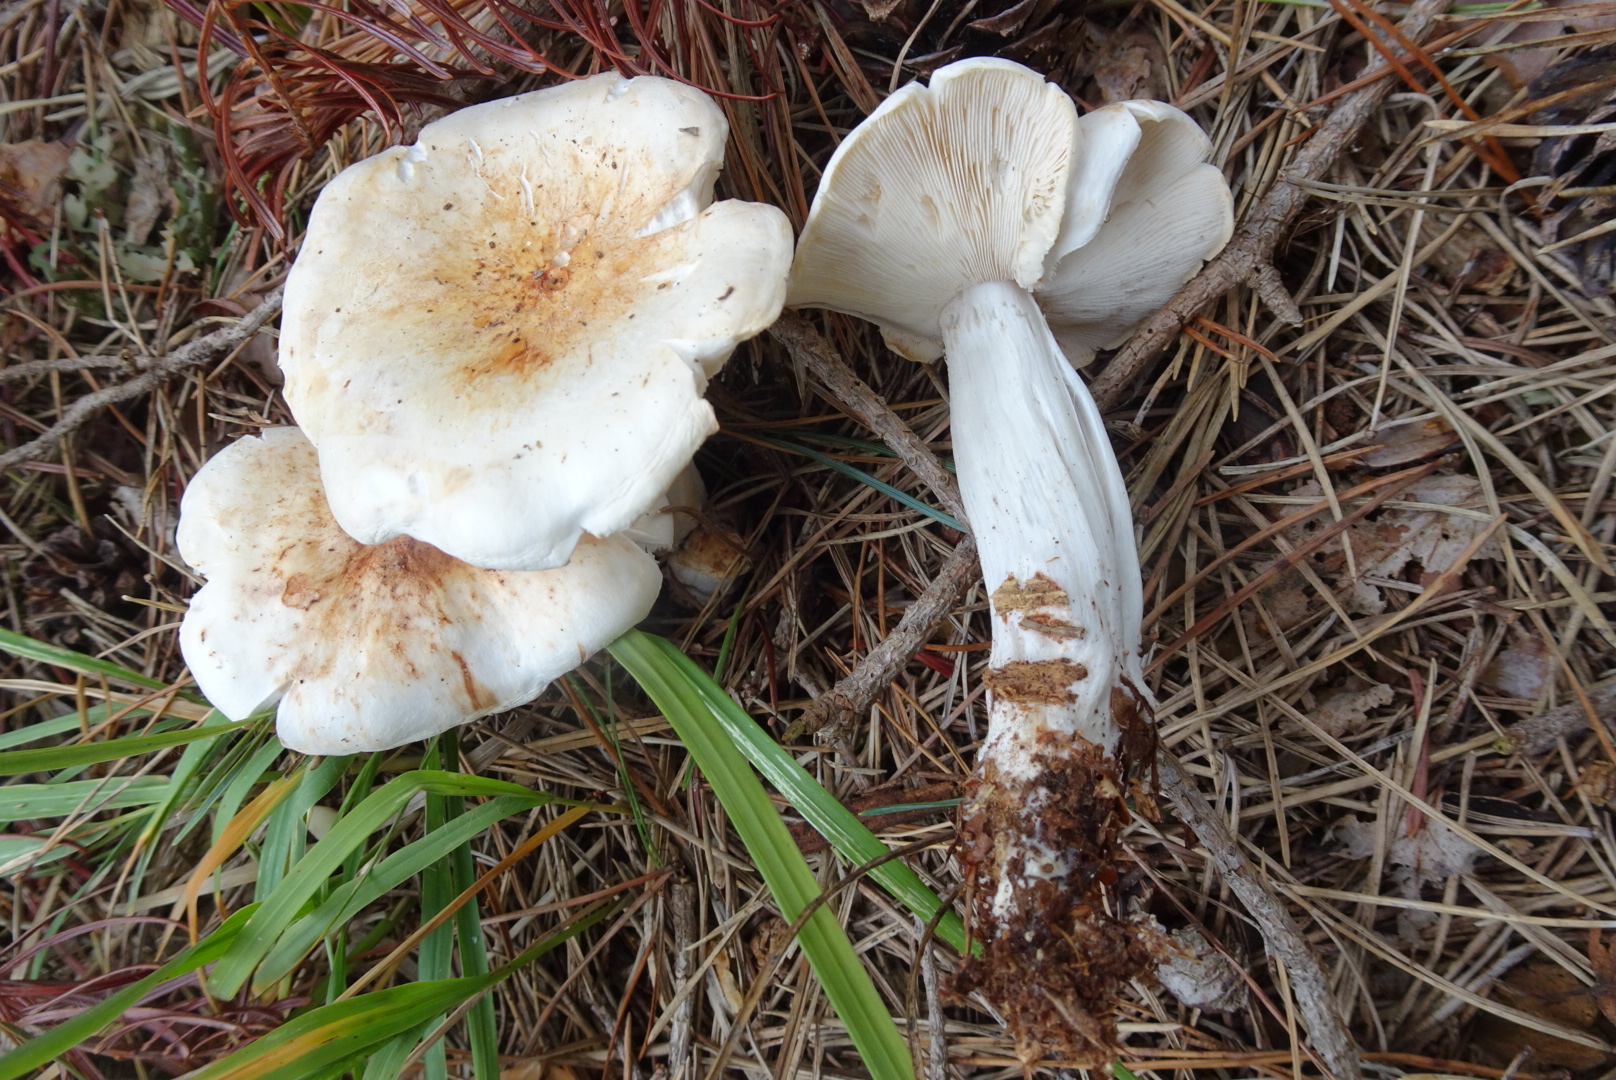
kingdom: Fungi
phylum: Basidiomycota
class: Agaricomycetes
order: Agaricales
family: Omphalotaceae
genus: Rhodocollybia
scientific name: Rhodocollybia maculata
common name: plettet fladhat
